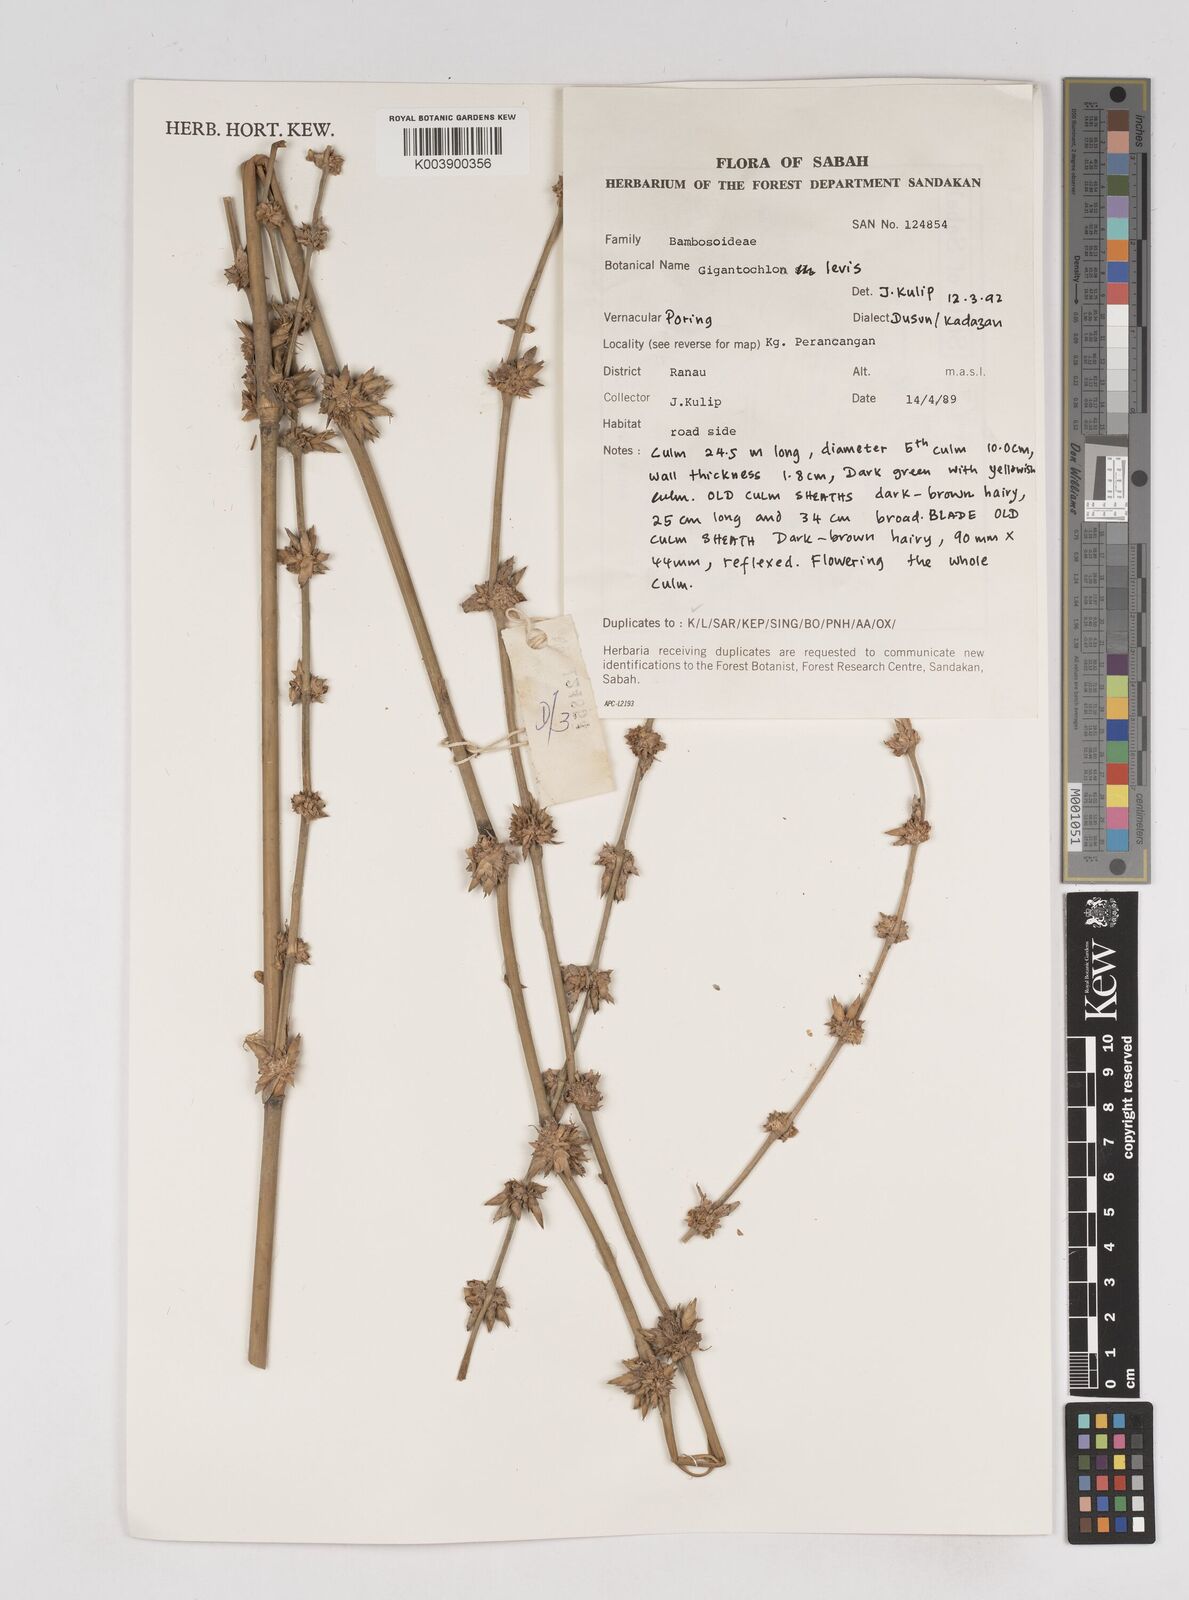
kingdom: Plantae
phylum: Tracheophyta
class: Liliopsida
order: Poales
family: Poaceae
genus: Gigantochloa
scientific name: Gigantochloa levis
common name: Smooth-shoot gigantochloa
